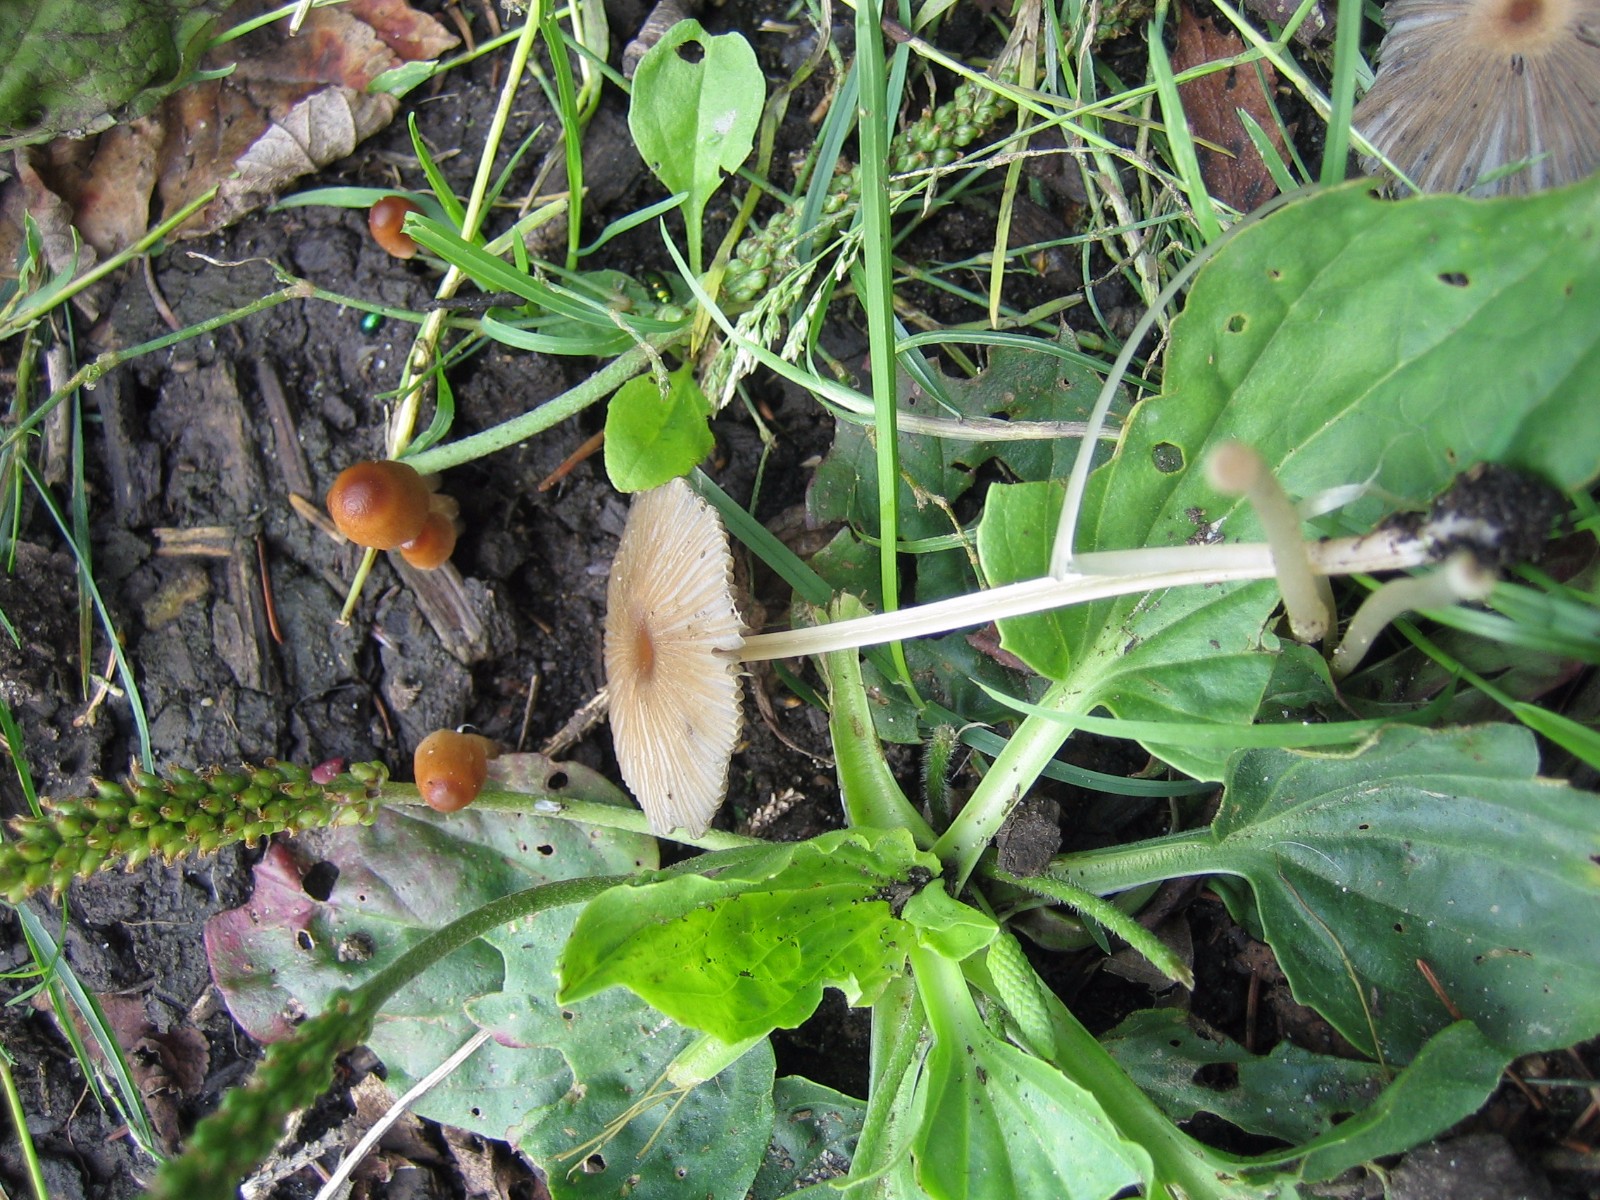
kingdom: Fungi
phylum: Basidiomycota
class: Agaricomycetes
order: Agaricales
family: Psathyrellaceae
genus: Parasola
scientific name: Parasola
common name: hjulhat
